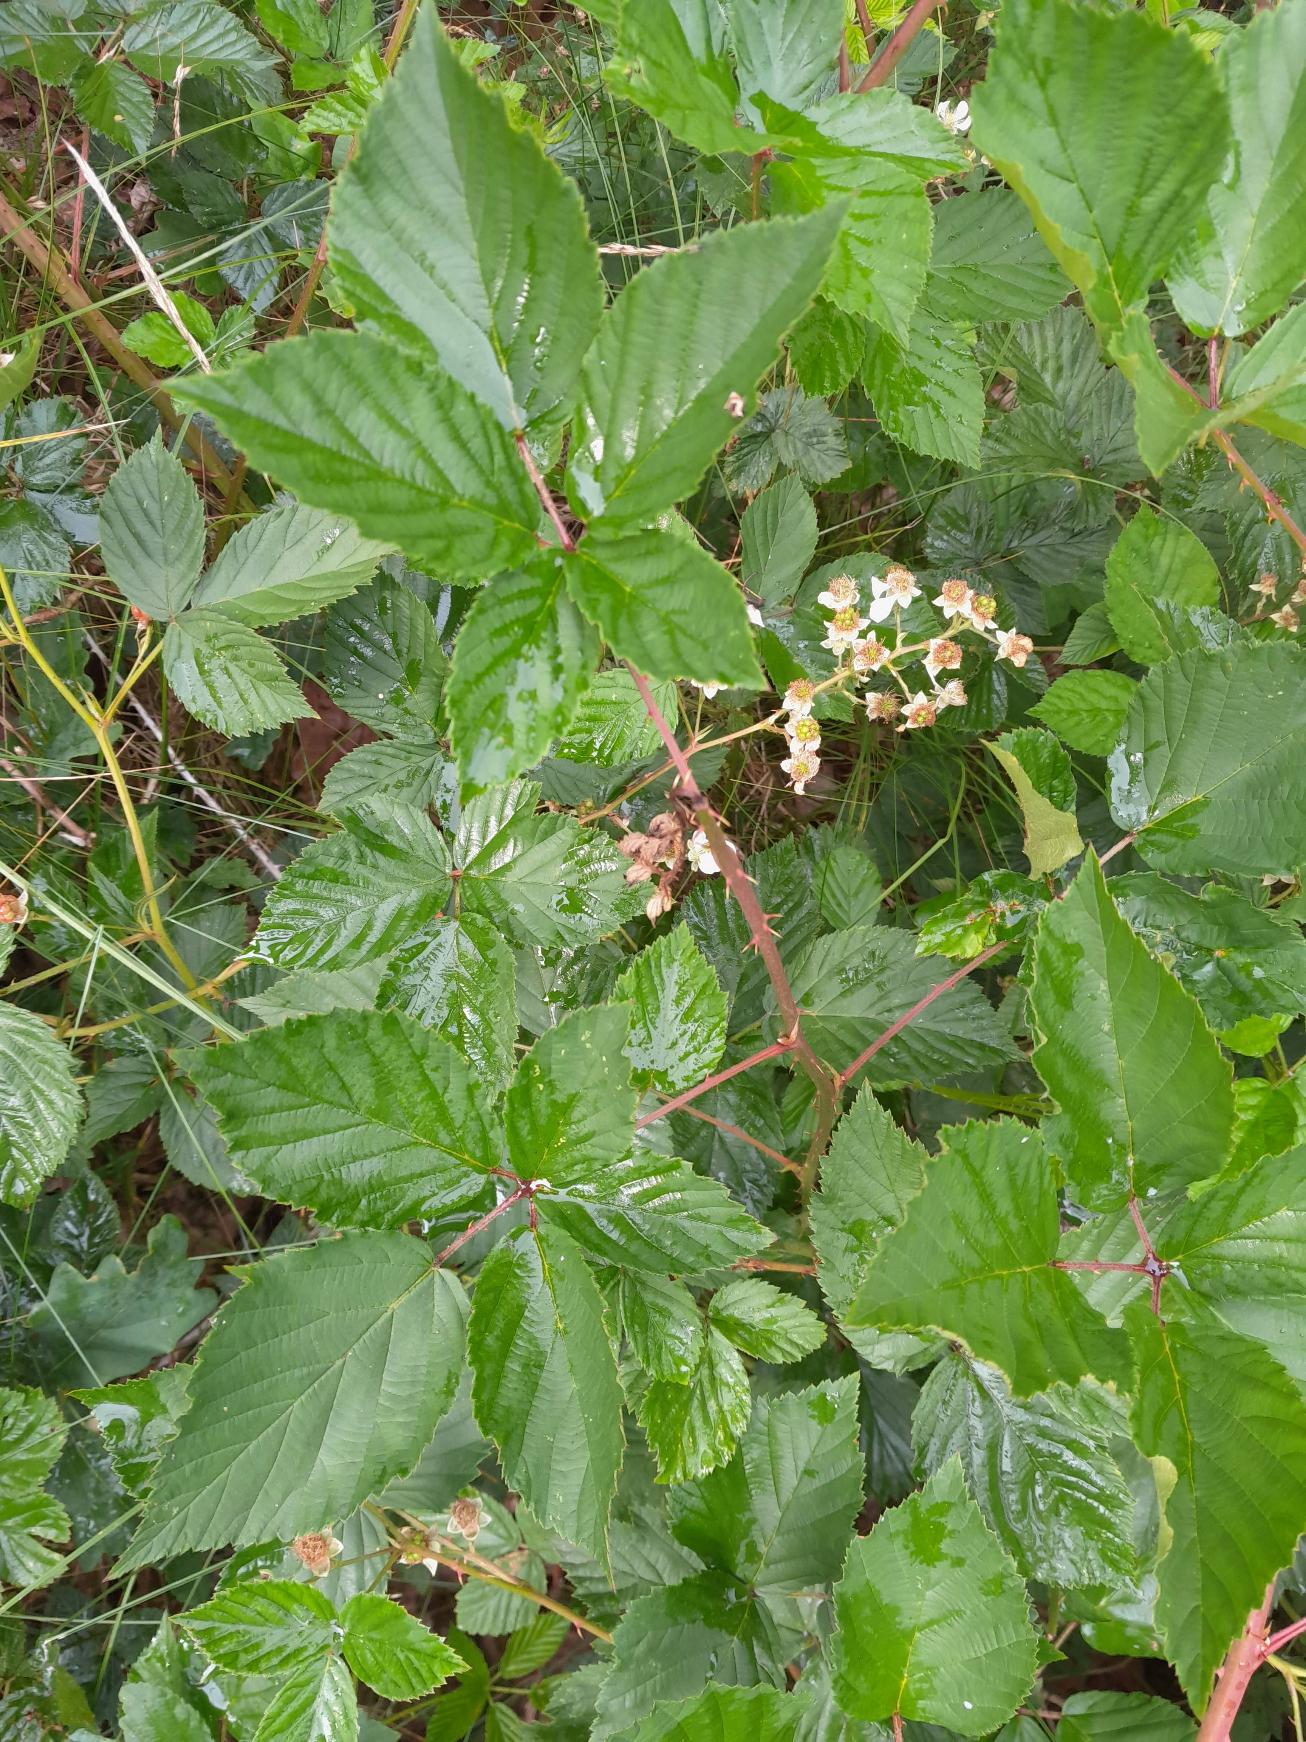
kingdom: Plantae
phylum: Tracheophyta
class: Magnoliopsida
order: Rosales
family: Rosaceae
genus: Rubus
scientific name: Rubus gothicus
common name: Spidsbladet hasselbrombær
